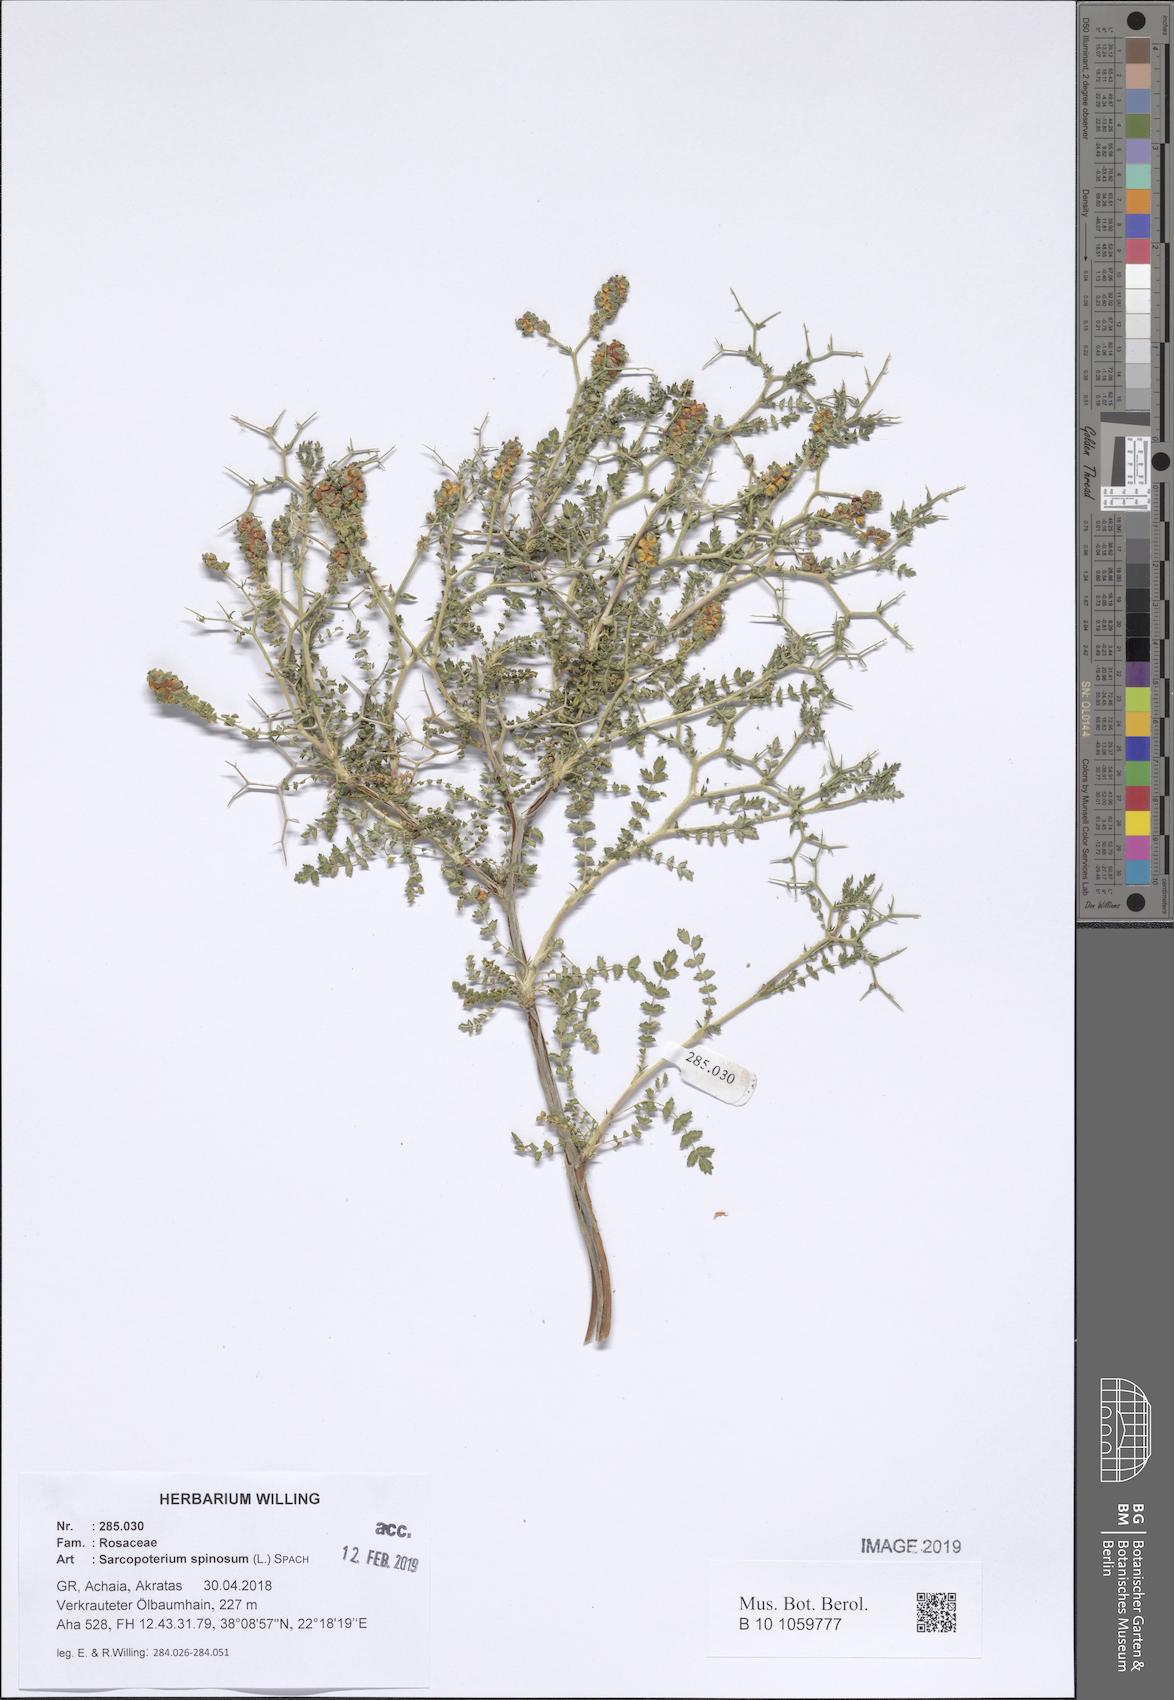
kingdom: Plantae
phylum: Tracheophyta
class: Magnoliopsida
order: Rosales
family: Rosaceae
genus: Sarcopoterium
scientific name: Sarcopoterium spinosum
